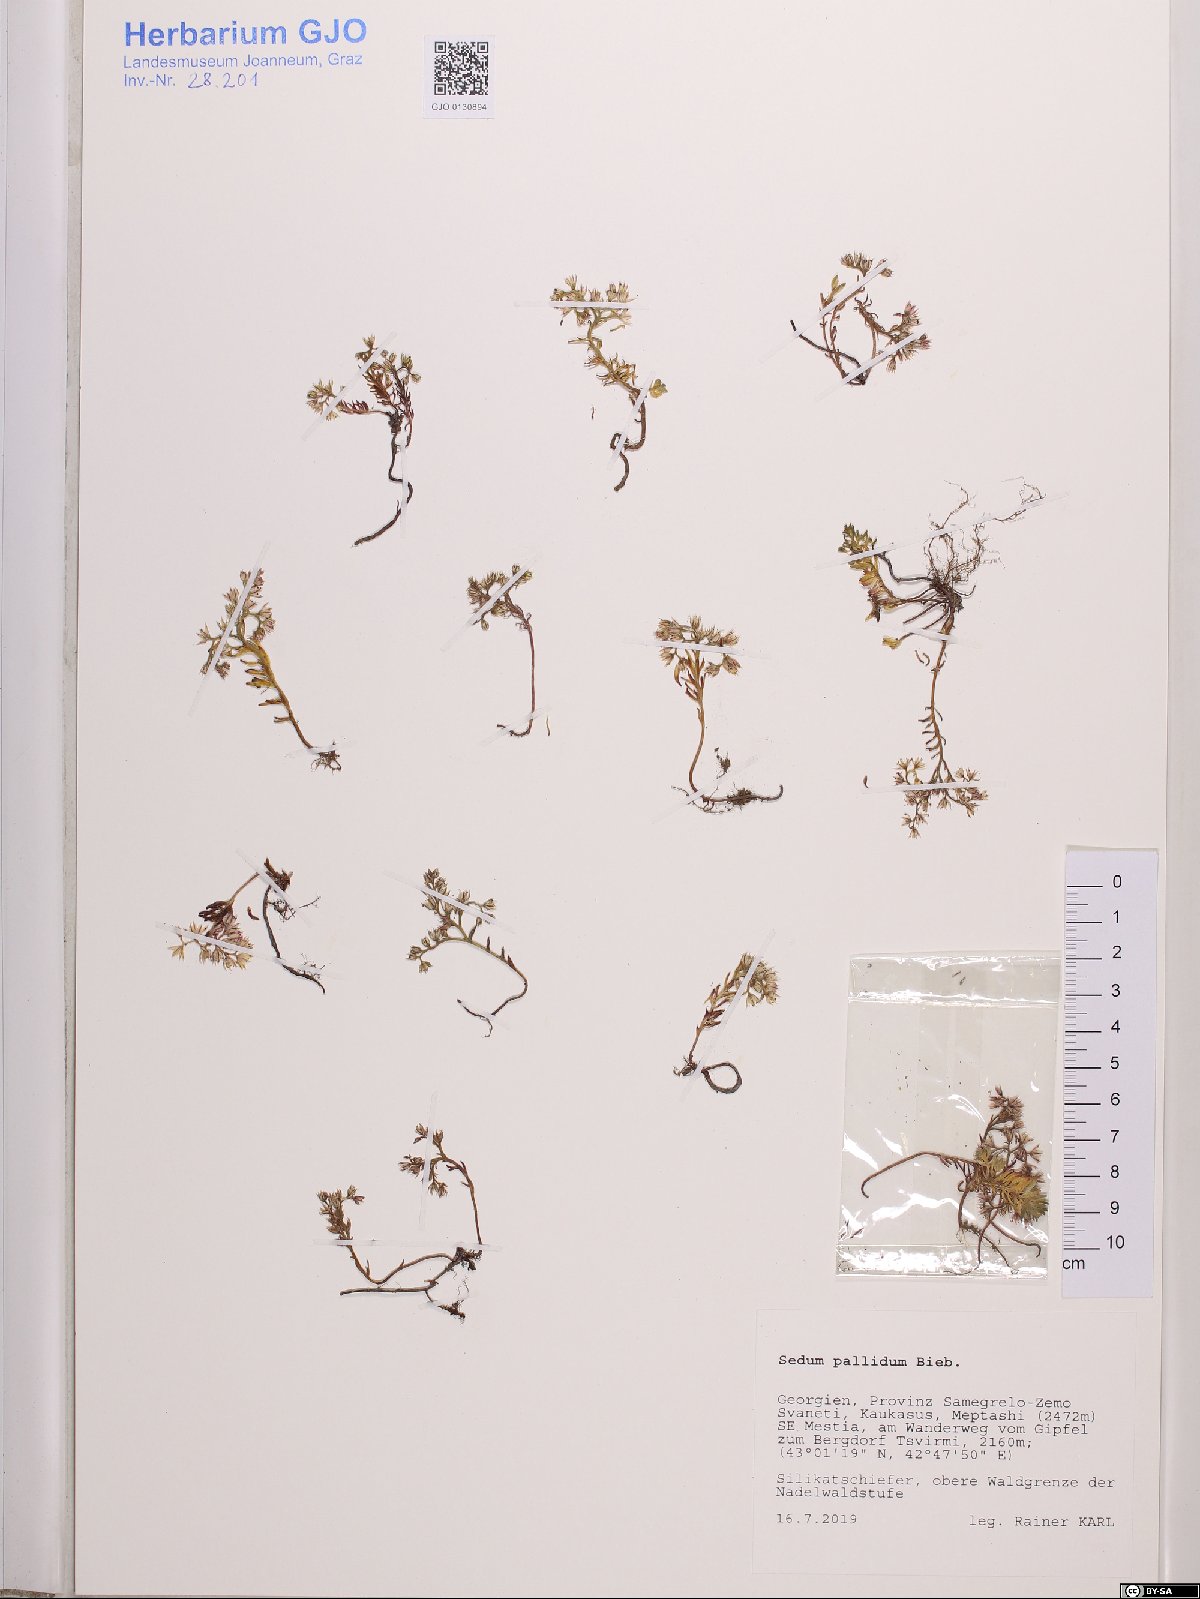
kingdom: Plantae
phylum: Tracheophyta
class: Magnoliopsida
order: Saxifragales
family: Crassulaceae
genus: Sedum
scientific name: Sedum pallidum
